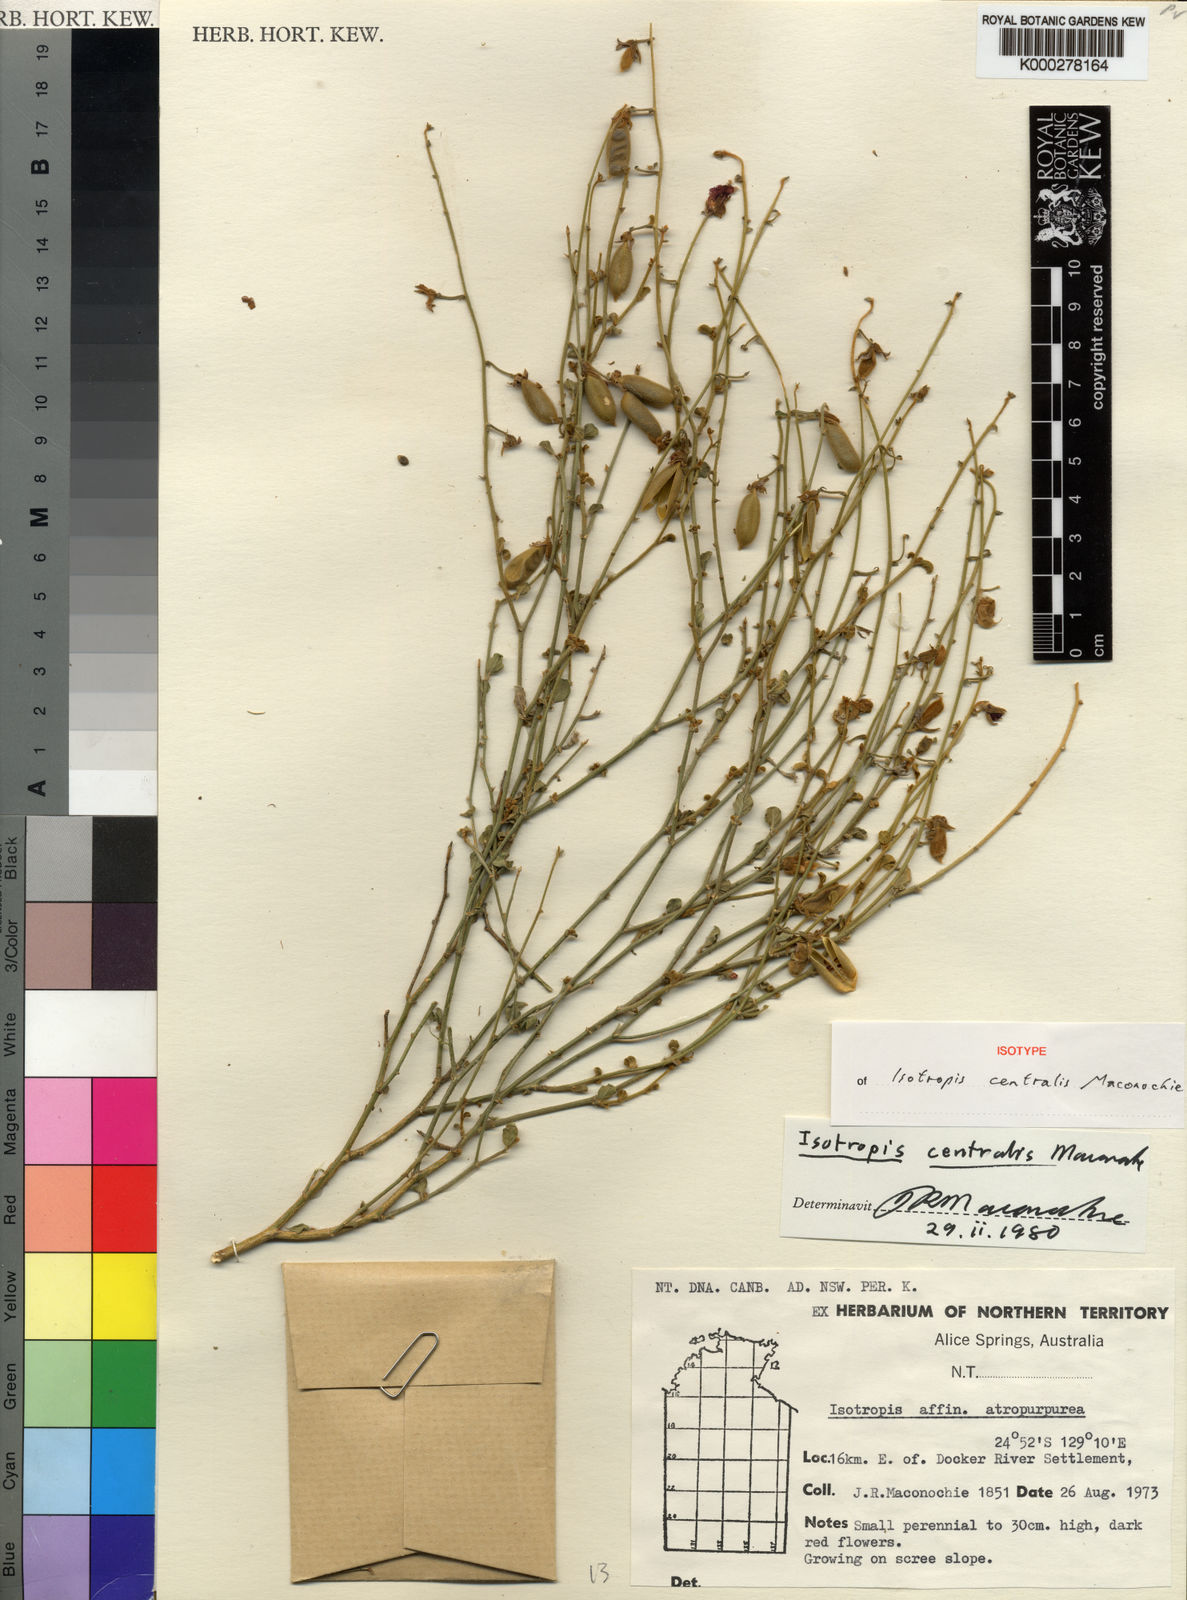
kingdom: Plantae
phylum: Tracheophyta
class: Magnoliopsida
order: Fabales
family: Fabaceae
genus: Isotropis
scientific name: Isotropis centralis
